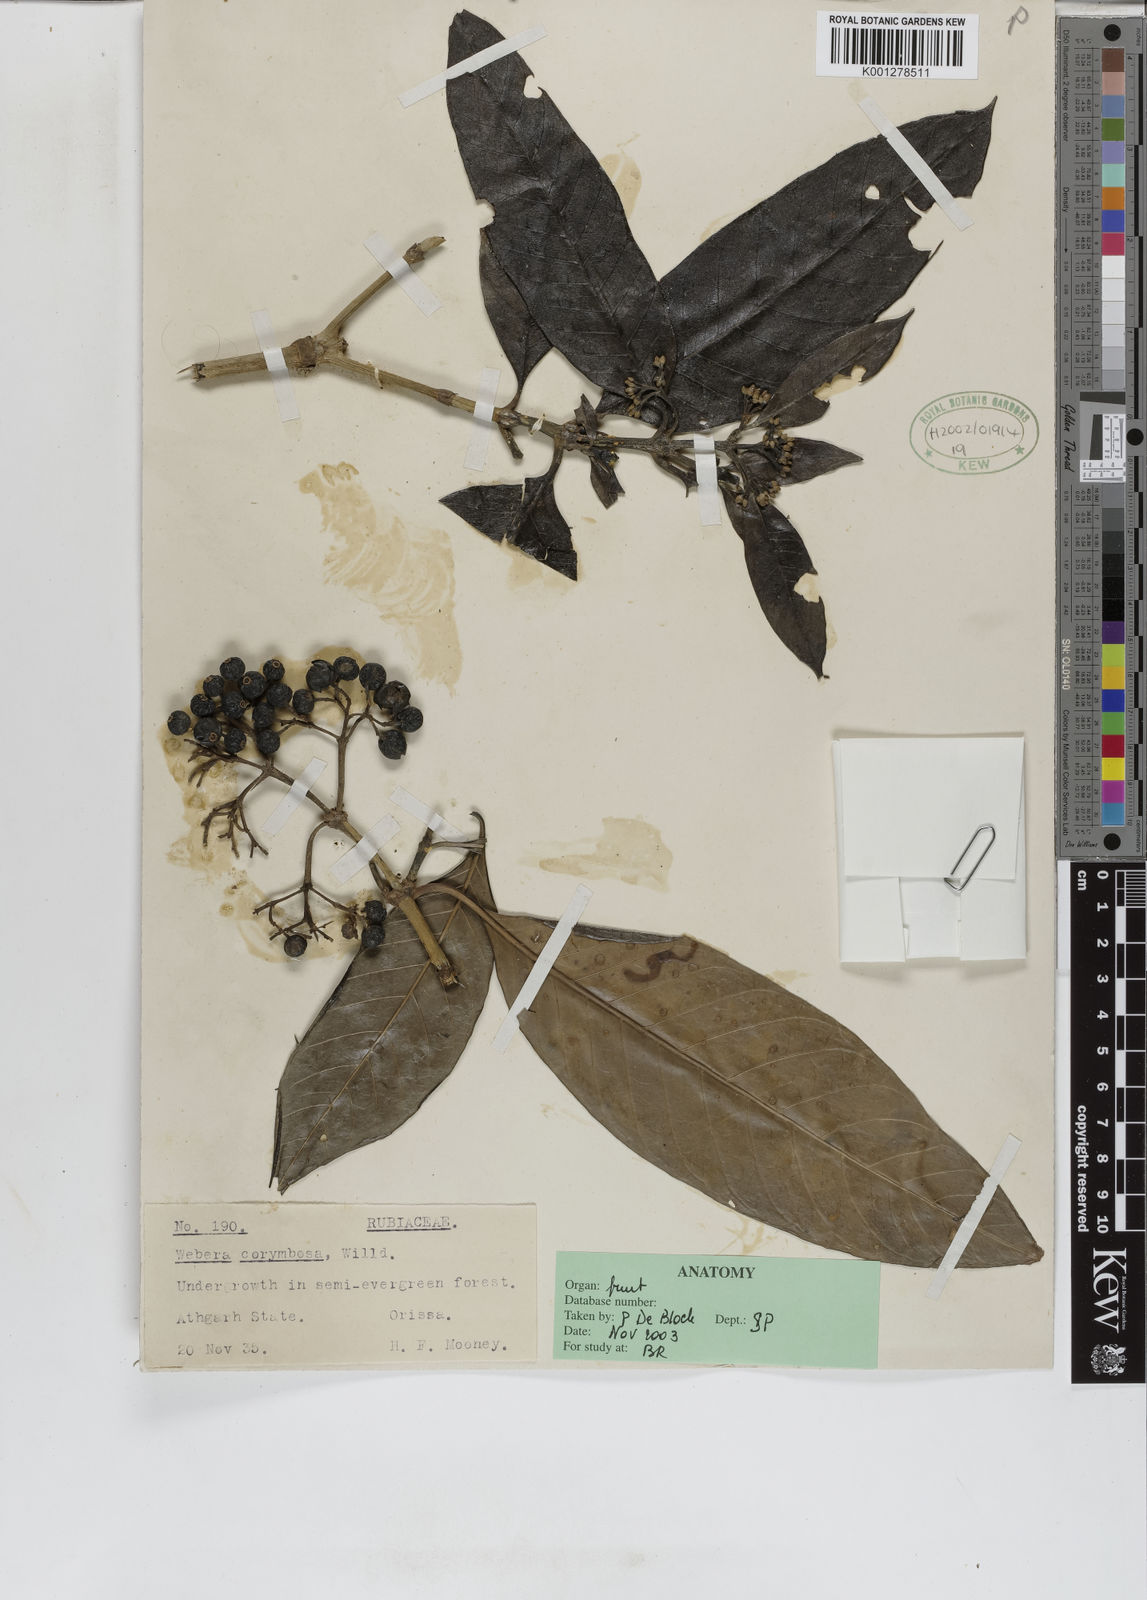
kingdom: Plantae
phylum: Tracheophyta
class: Magnoliopsida
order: Gentianales
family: Rubiaceae
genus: Tarenna
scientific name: Tarenna asiatica
